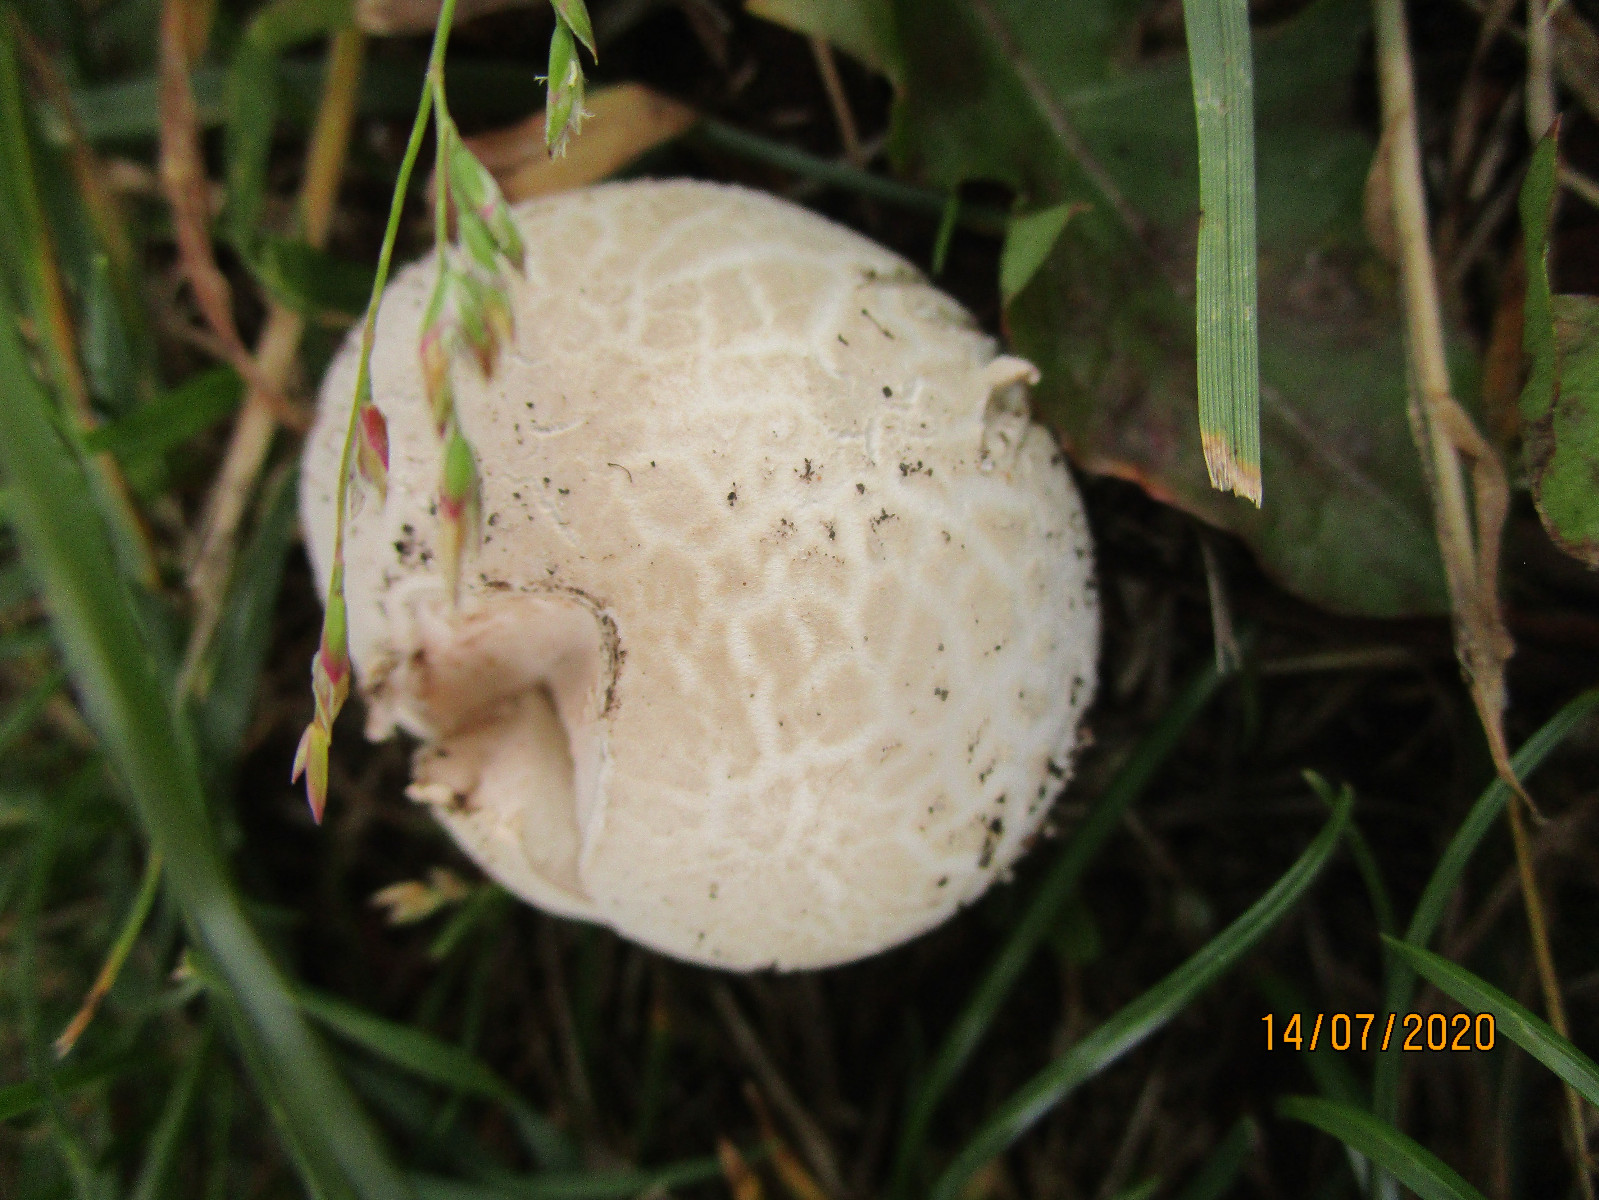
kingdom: Fungi
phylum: Basidiomycota
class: Agaricomycetes
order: Agaricales
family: Lycoperdaceae
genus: Bovista
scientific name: Bovista
